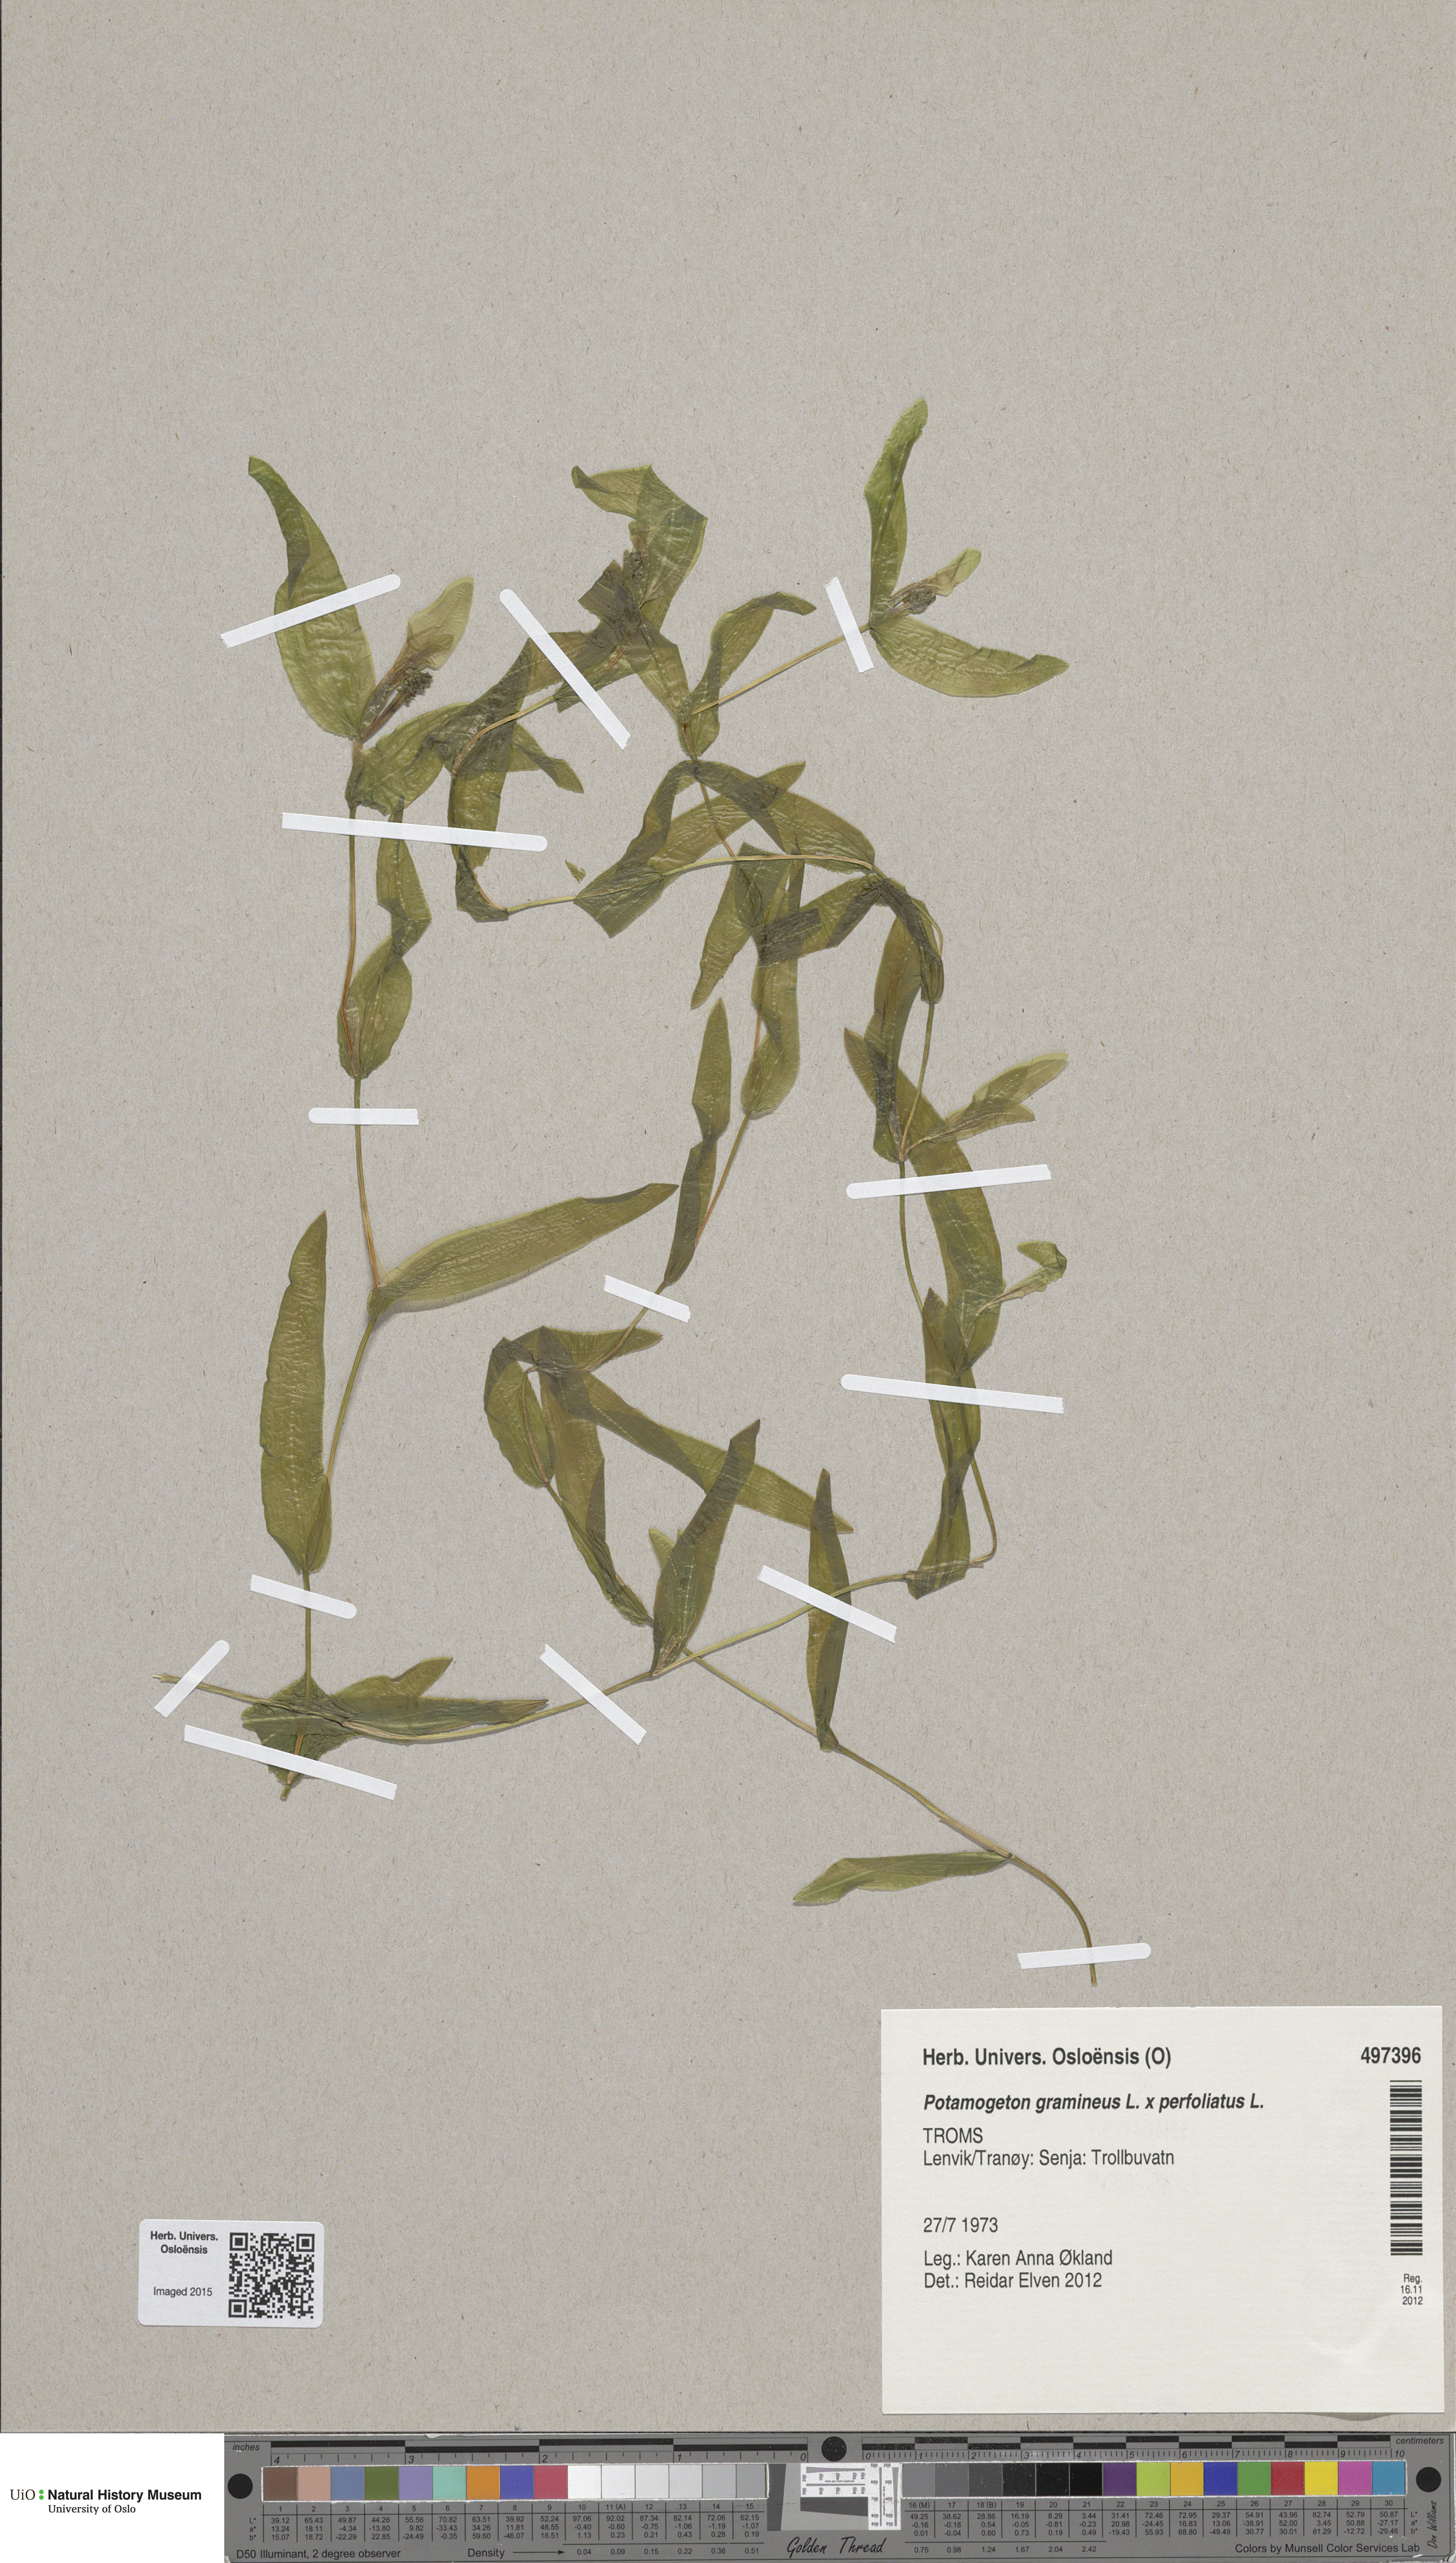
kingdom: Plantae
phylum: Tracheophyta
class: Liliopsida
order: Alismatales
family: Potamogetonaceae
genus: Potamogeton
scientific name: Potamogeton nitens
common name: Pondweed
